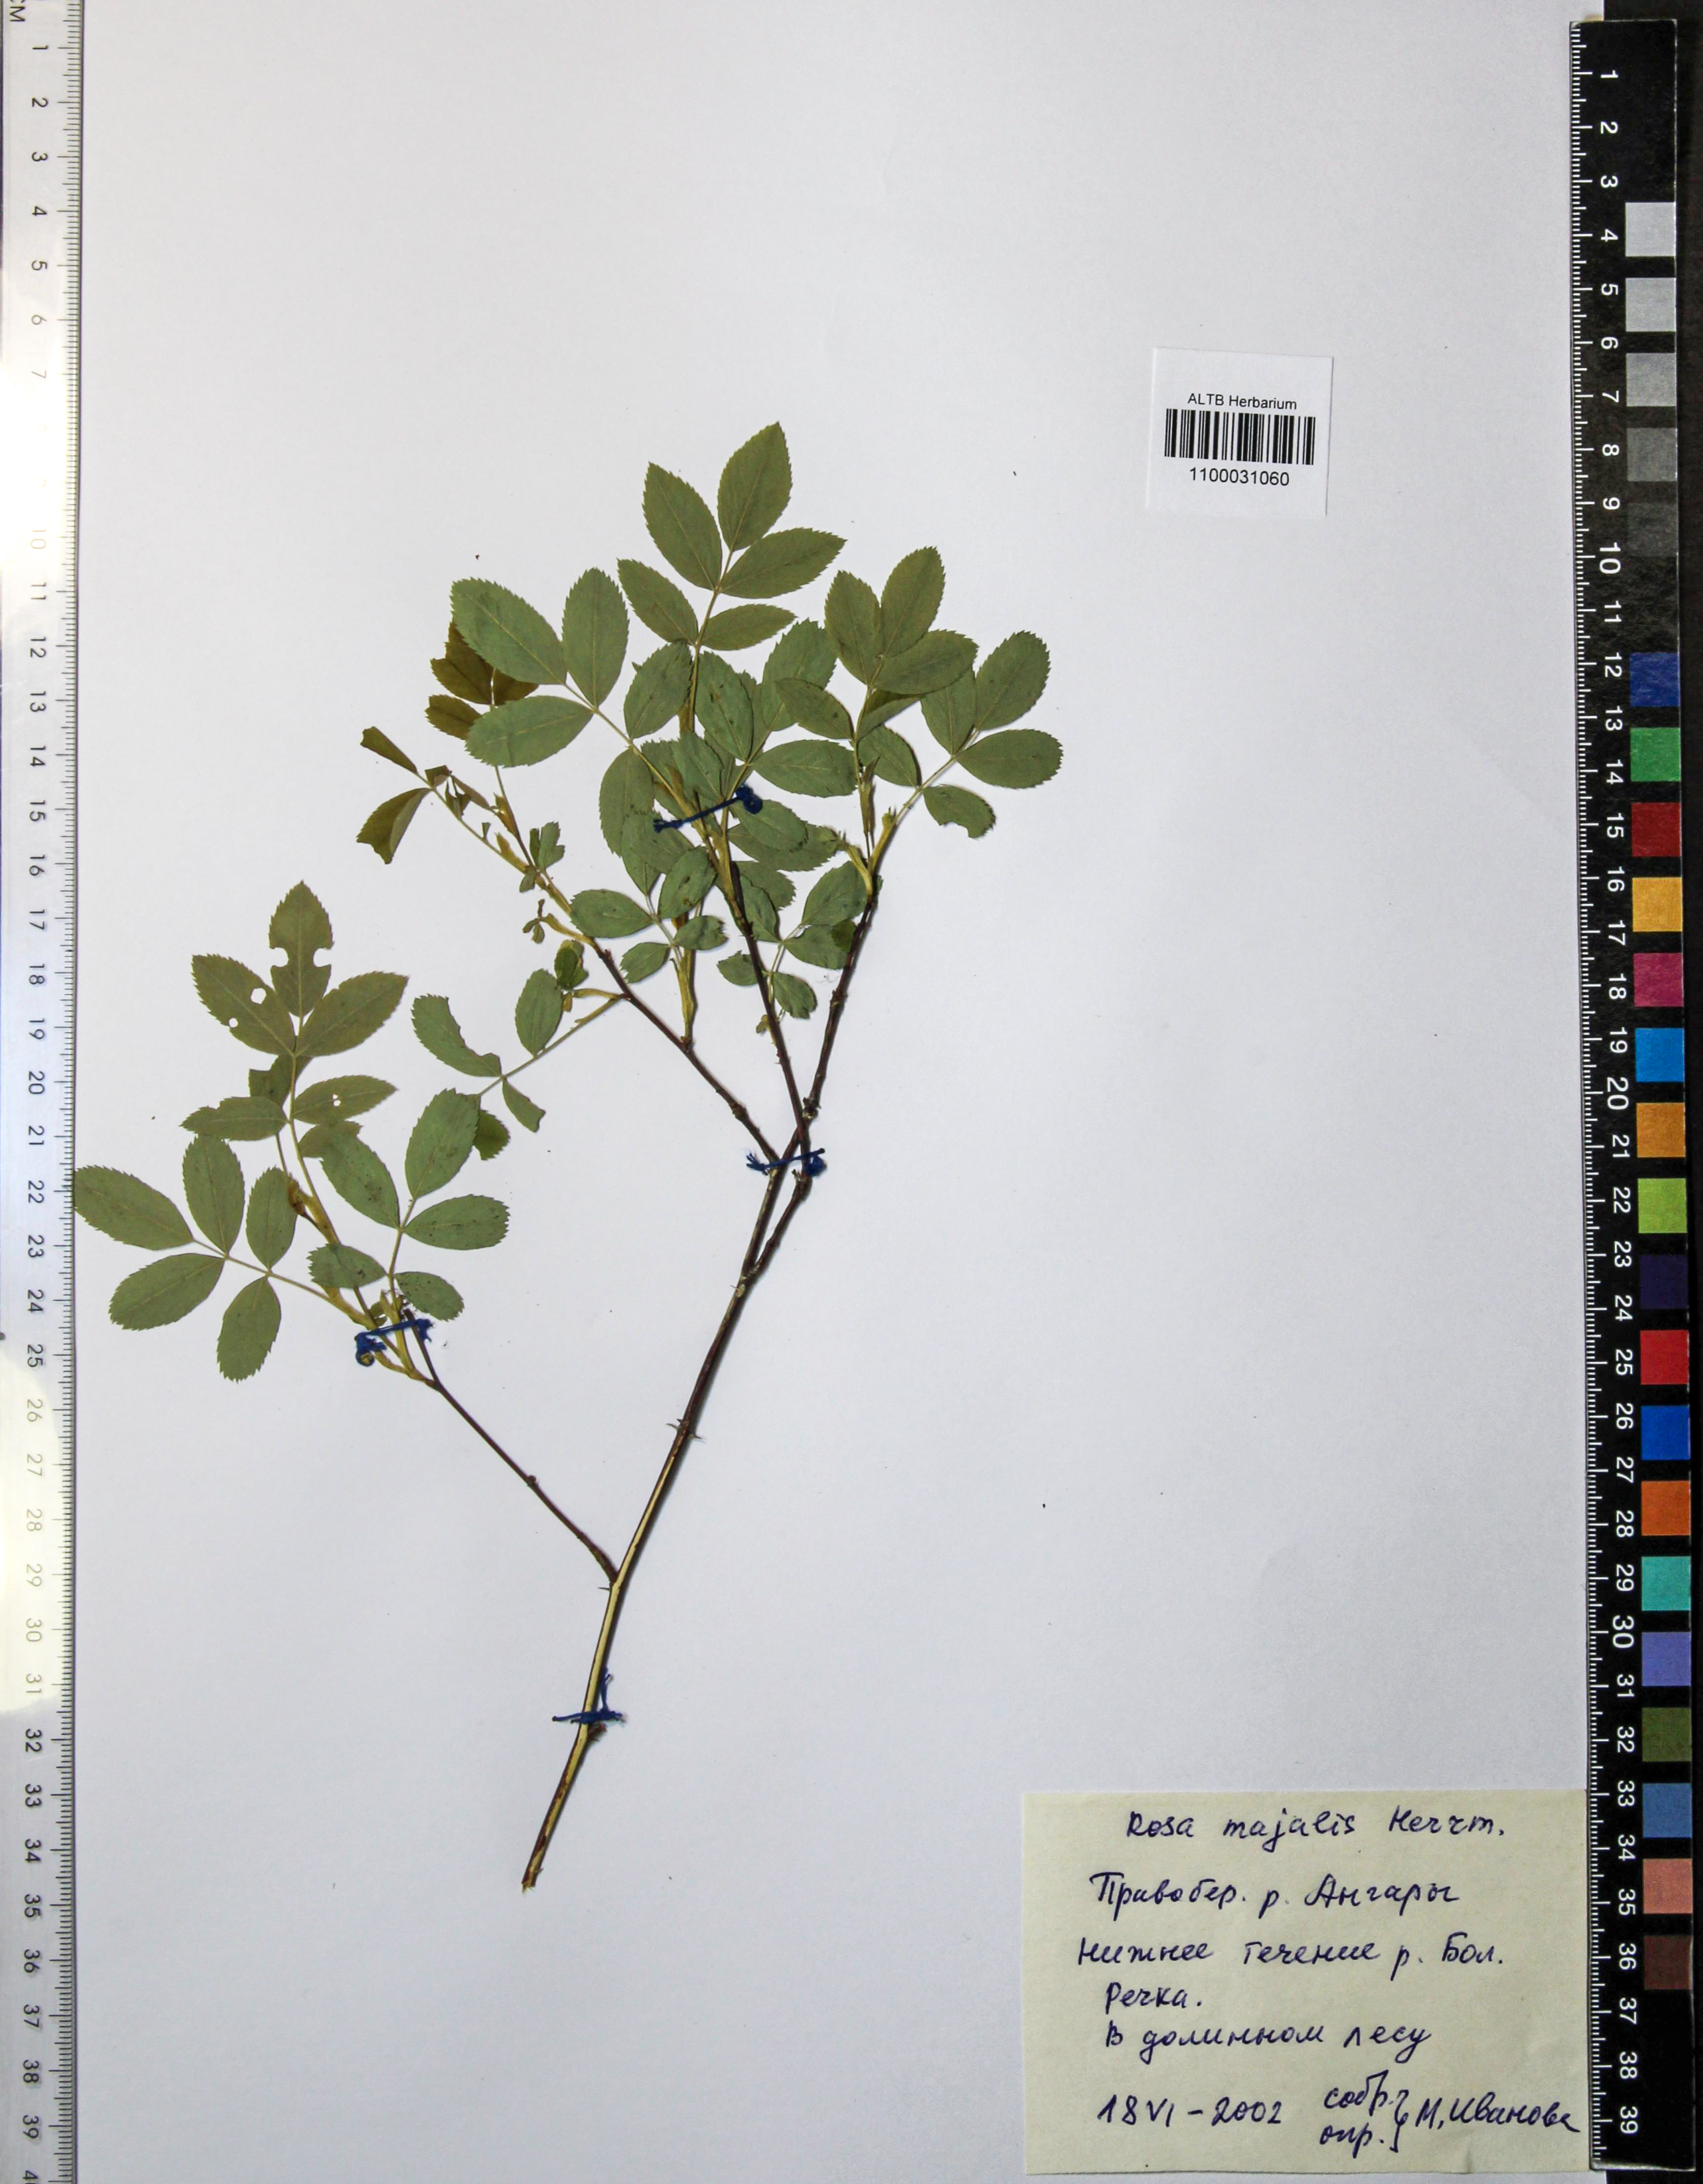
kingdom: Plantae
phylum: Tracheophyta
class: Magnoliopsida
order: Rosales
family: Rosaceae
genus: Rosa
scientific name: Rosa majalis
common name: Cinnamon rose
